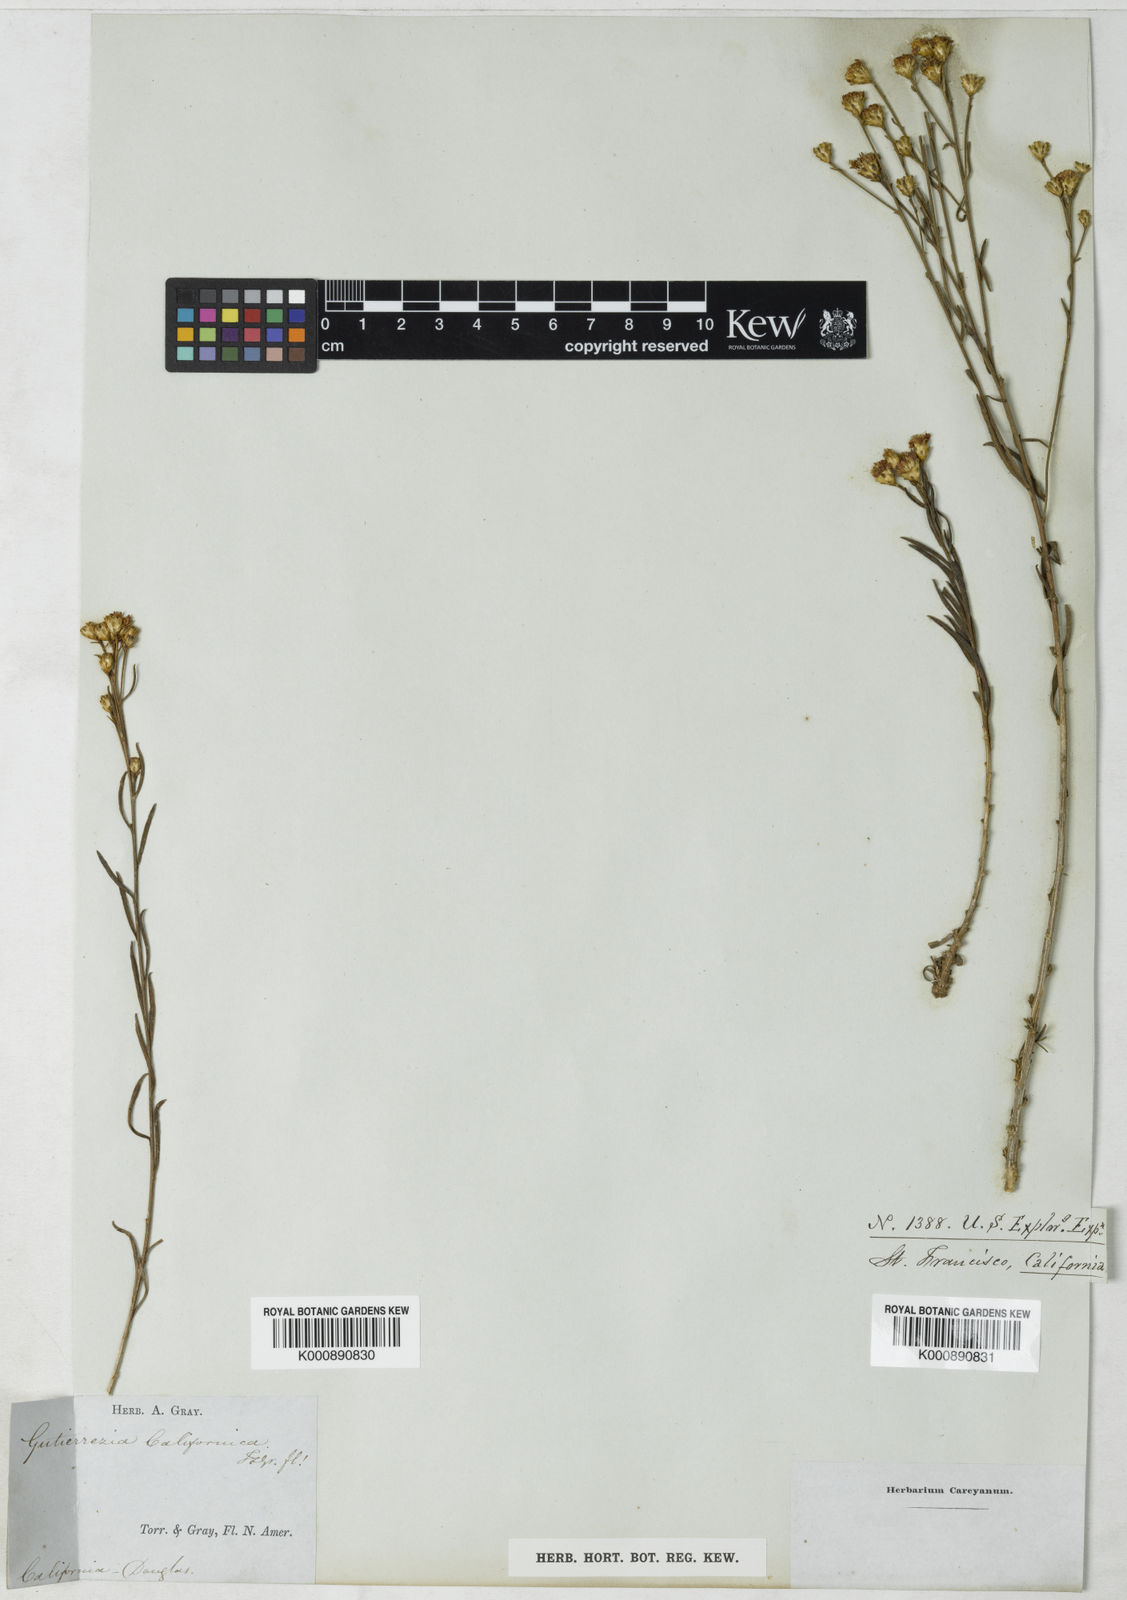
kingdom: Plantae
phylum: Tracheophyta
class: Magnoliopsida
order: Asterales
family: Asteraceae
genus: Gutierrezia
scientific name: Gutierrezia californica
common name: California matchweed
